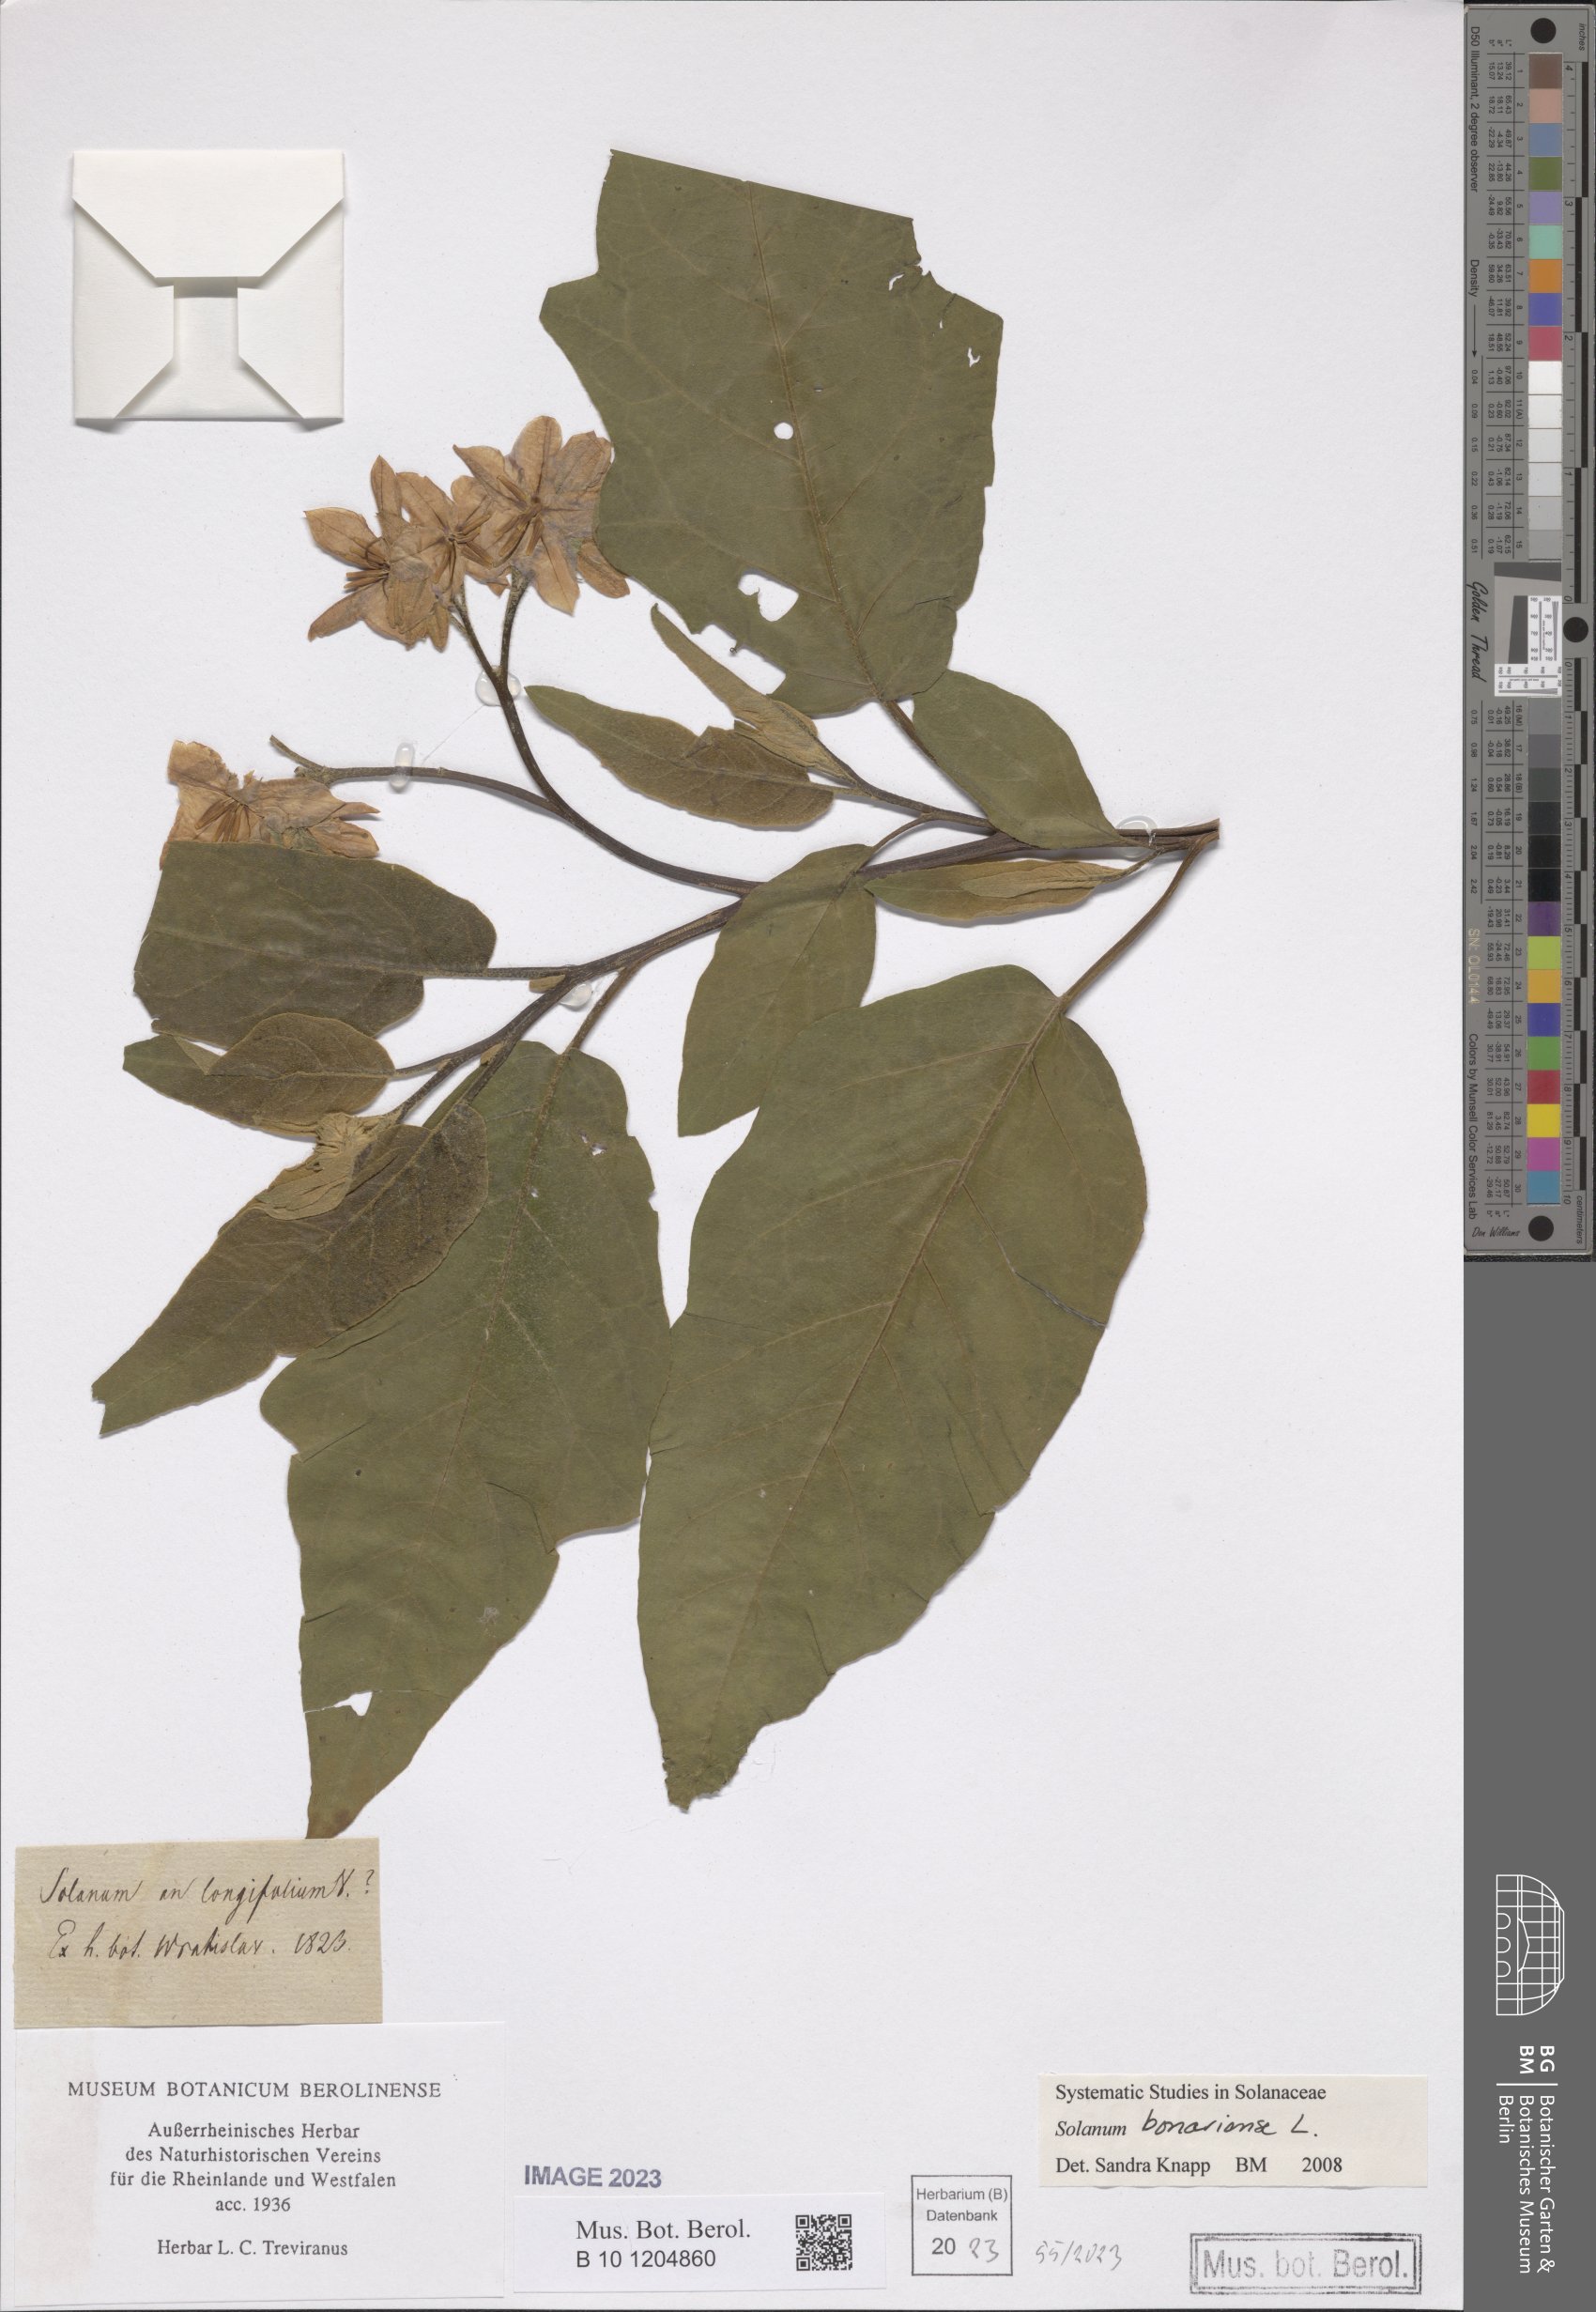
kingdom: Plantae
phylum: Tracheophyta
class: Magnoliopsida
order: Solanales
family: Solanaceae
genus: Solanum
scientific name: Solanum bonariense
